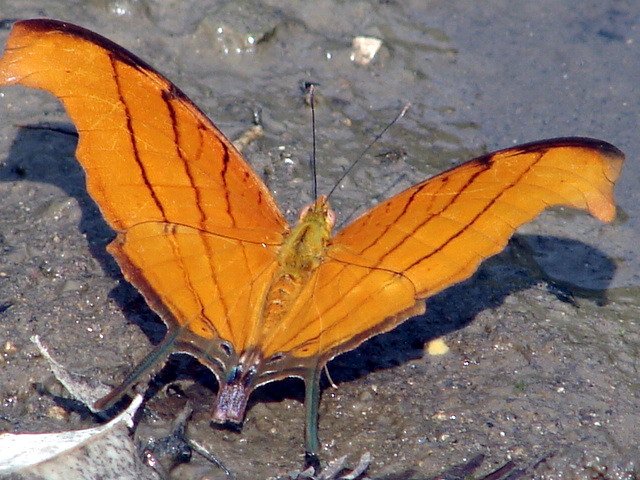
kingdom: Animalia
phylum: Arthropoda
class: Insecta
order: Lepidoptera
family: Nymphalidae
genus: Marpesia
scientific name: Marpesia petreus
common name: Ruddy Daggerwing
